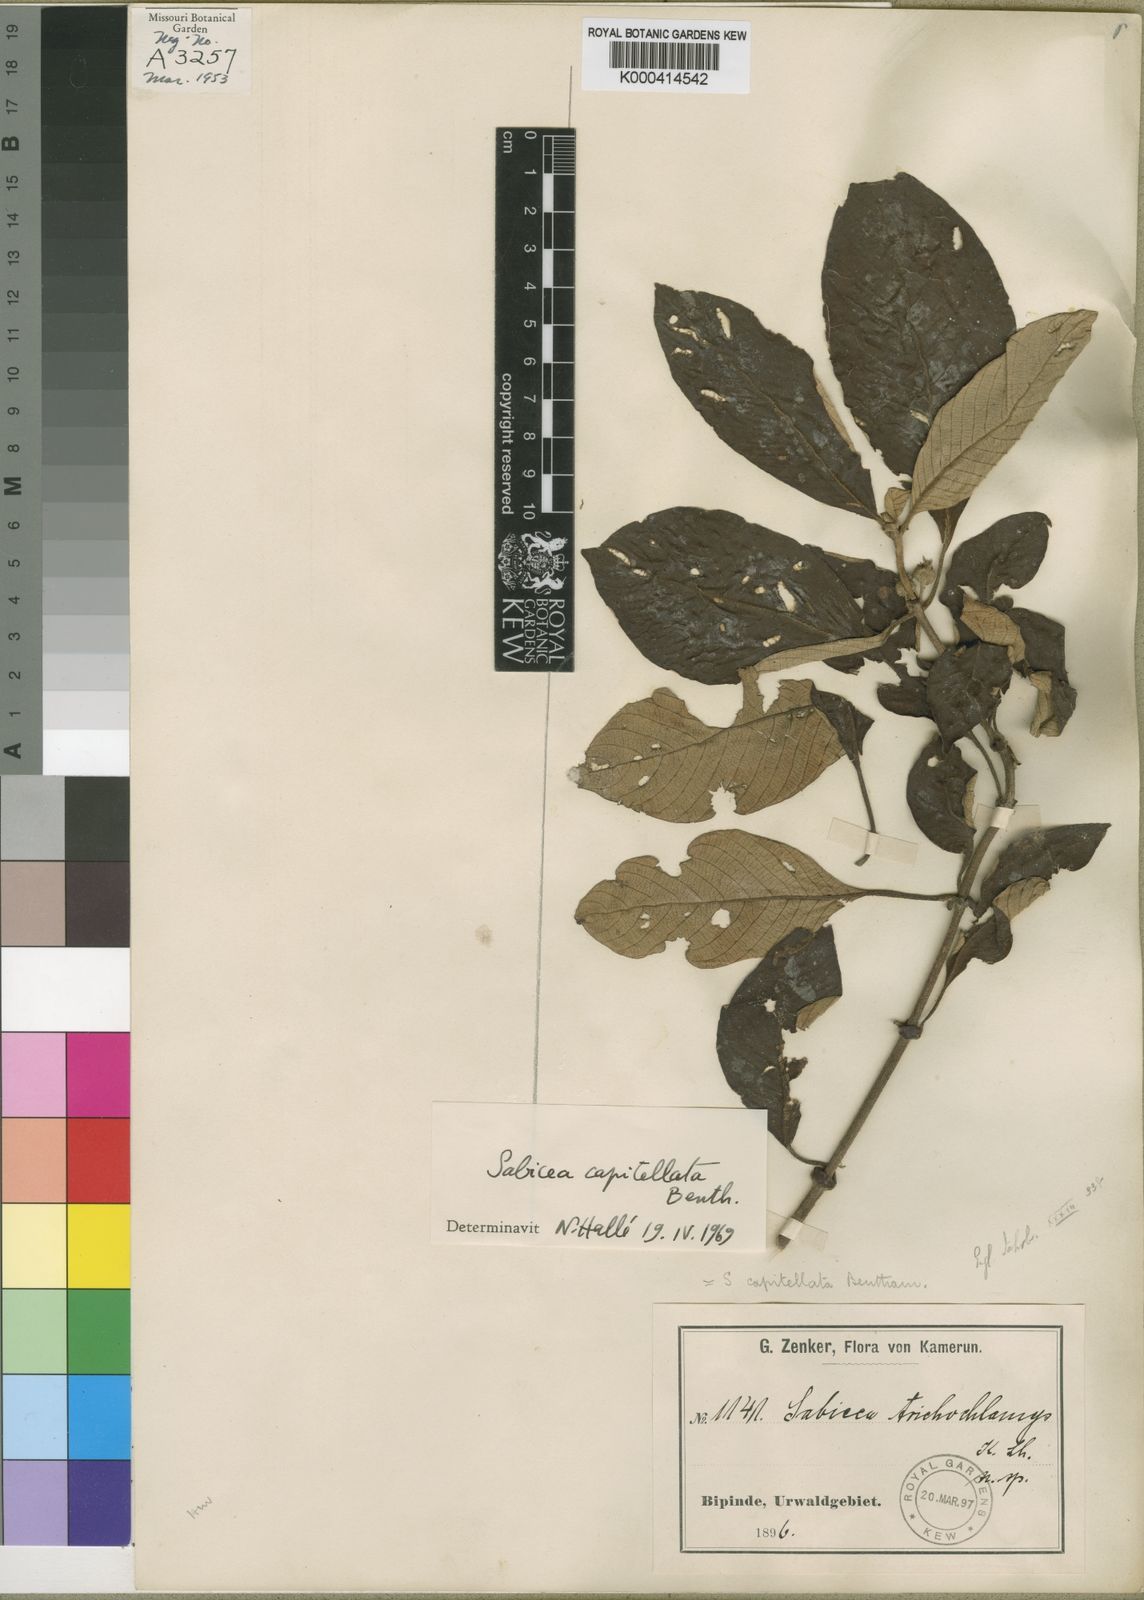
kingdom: Plantae
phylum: Tracheophyta
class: Magnoliopsida
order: Gentianales
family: Rubiaceae
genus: Sabicea
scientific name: Sabicea capitellata
